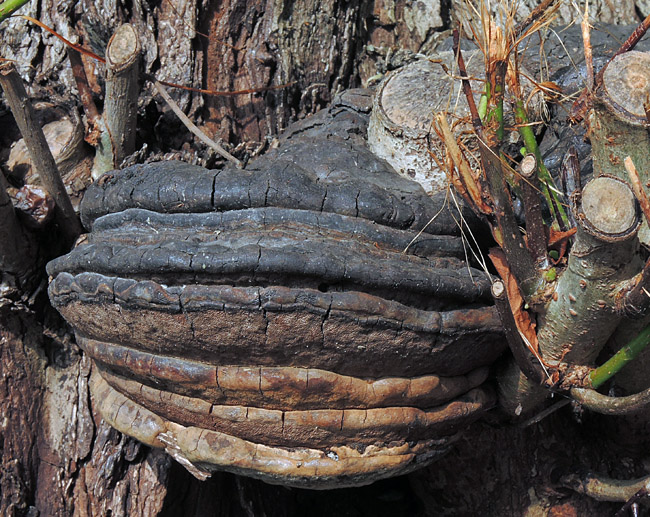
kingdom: Fungi
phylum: Basidiomycota
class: Agaricomycetes
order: Polyporales
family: Polyporaceae
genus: Ganoderma
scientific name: Ganoderma adspersum
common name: grov lakporesvamp
